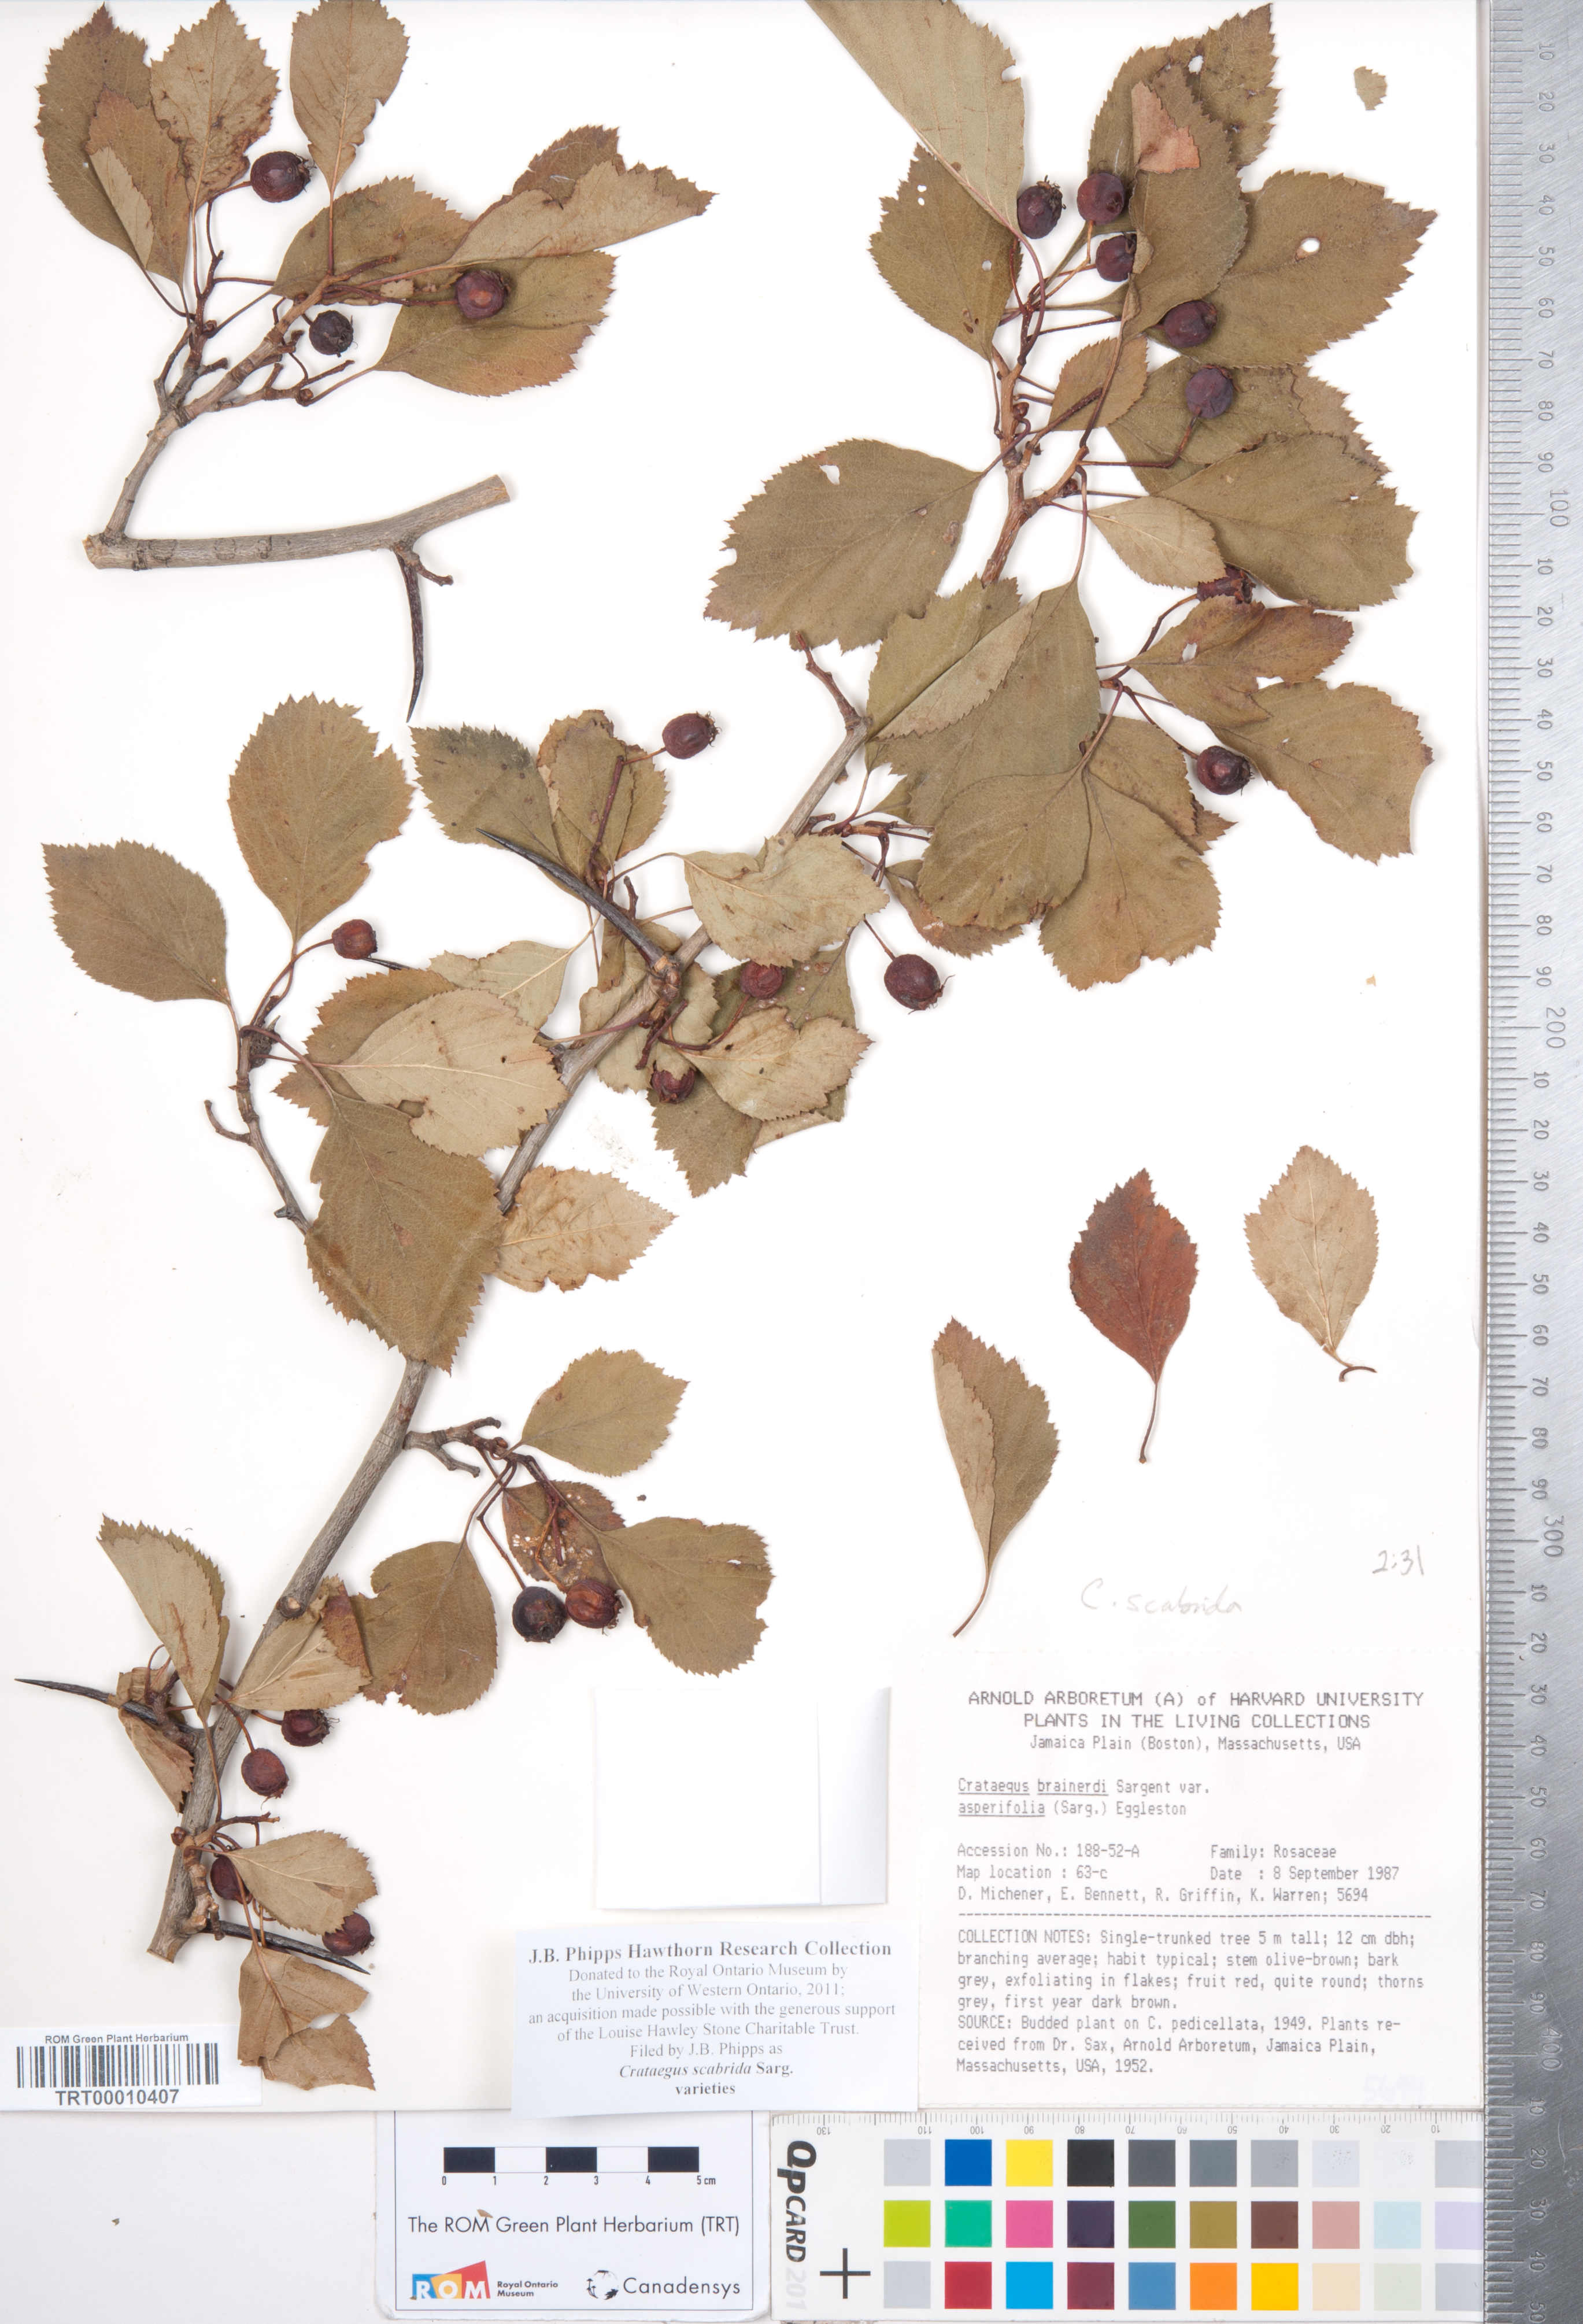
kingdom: Plantae
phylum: Tracheophyta
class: Magnoliopsida
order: Rosales
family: Rosaceae
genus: Crataegus
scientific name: Crataegus scabrida
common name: Rough hawthorn
